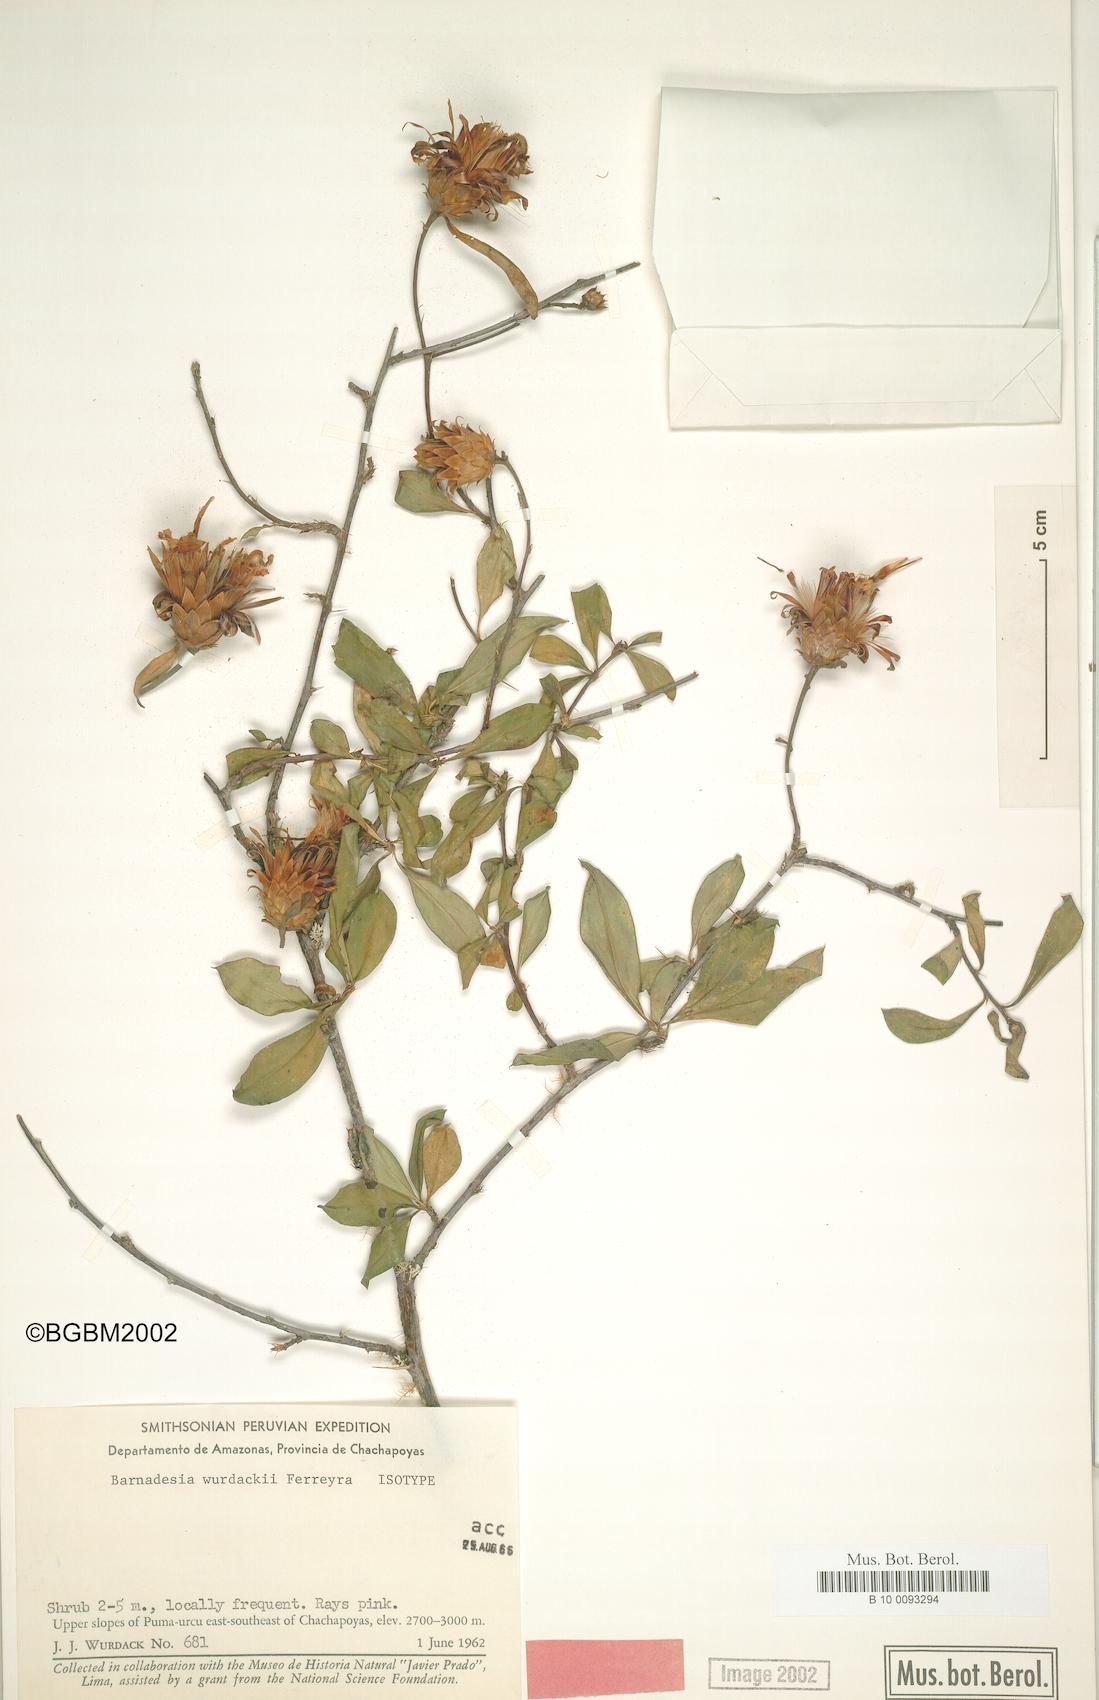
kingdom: Plantae
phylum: Tracheophyta
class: Magnoliopsida
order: Asterales
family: Asteraceae
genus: Barnadesia
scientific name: Barnadesia arborea
